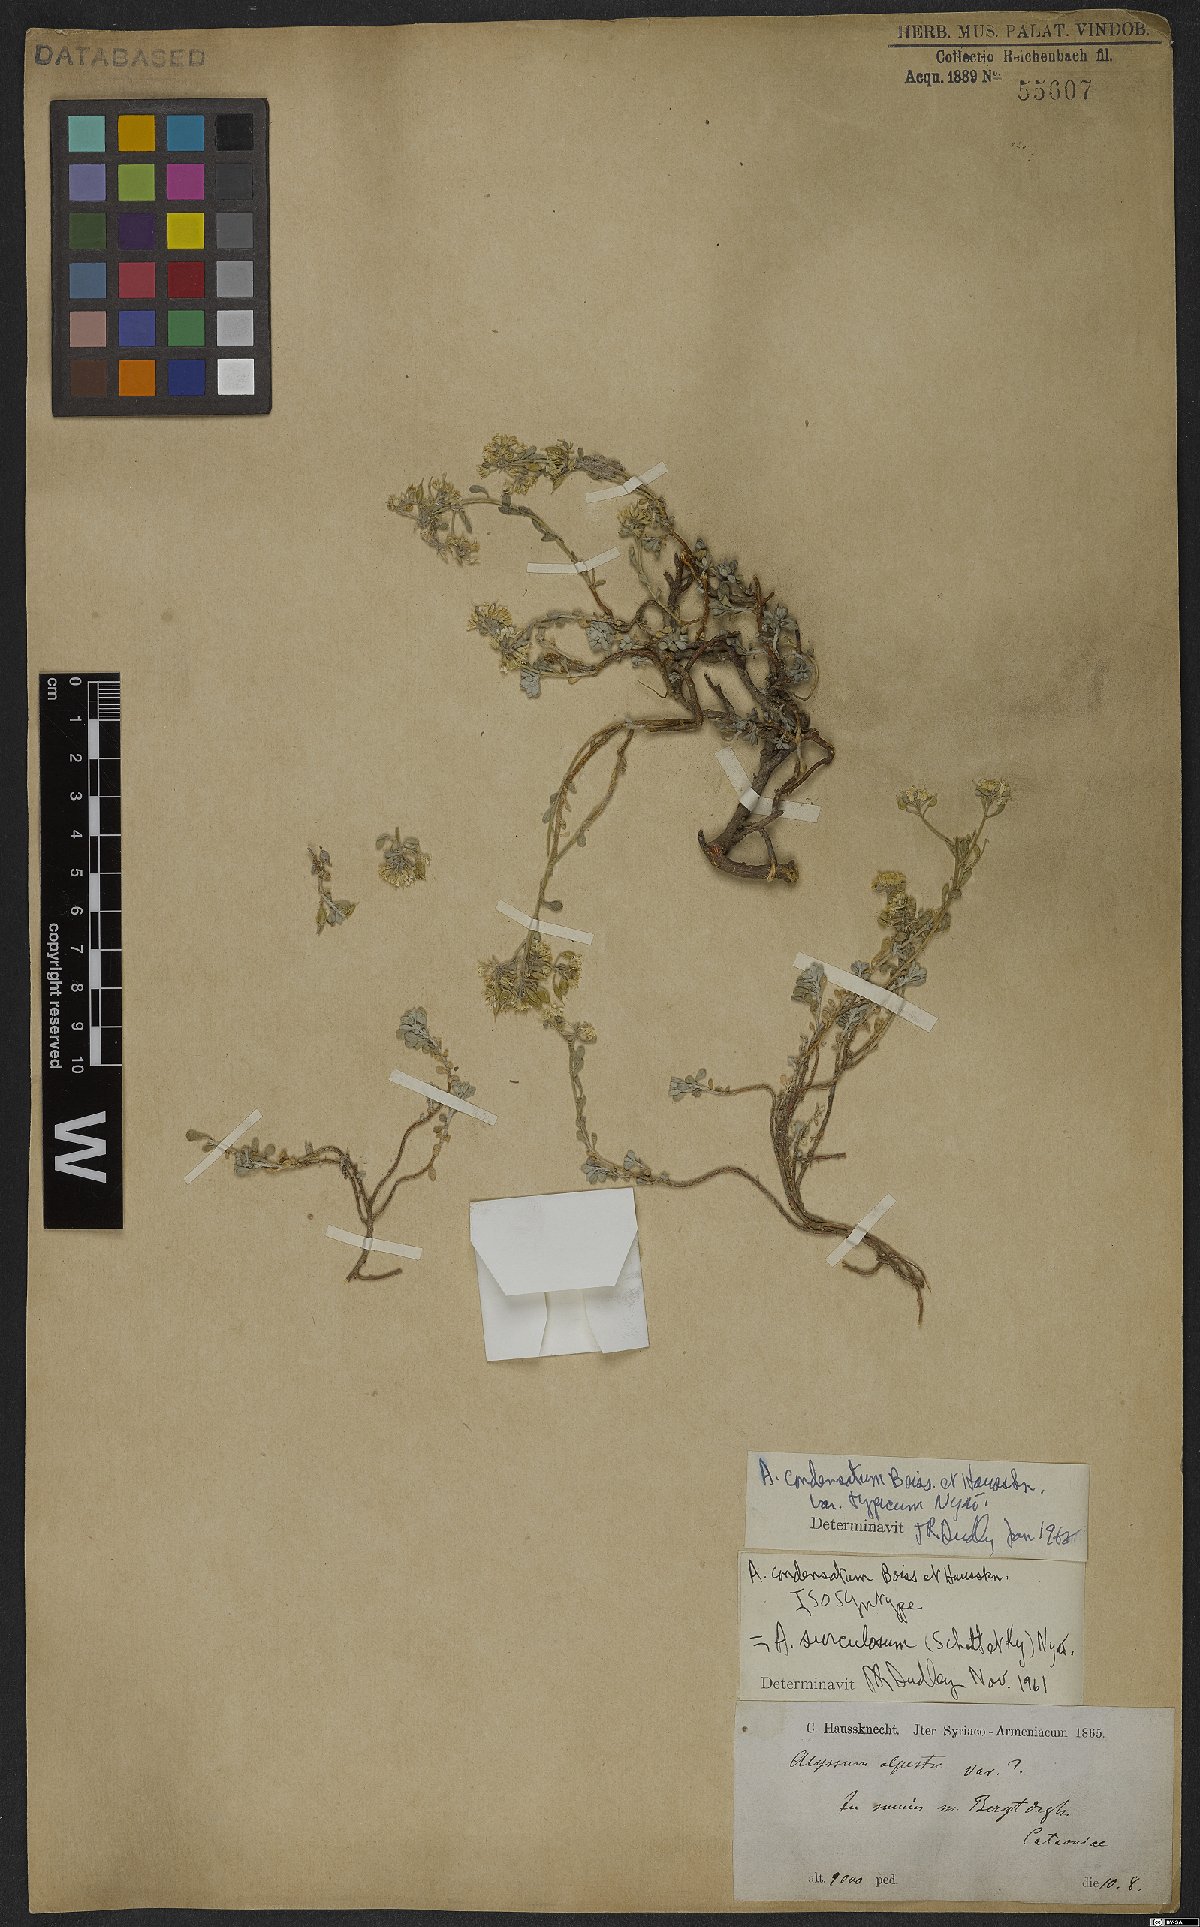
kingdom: Plantae
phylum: Tracheophyta
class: Magnoliopsida
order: Brassicales
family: Brassicaceae
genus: Odontarrhena
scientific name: Odontarrhena condensata
